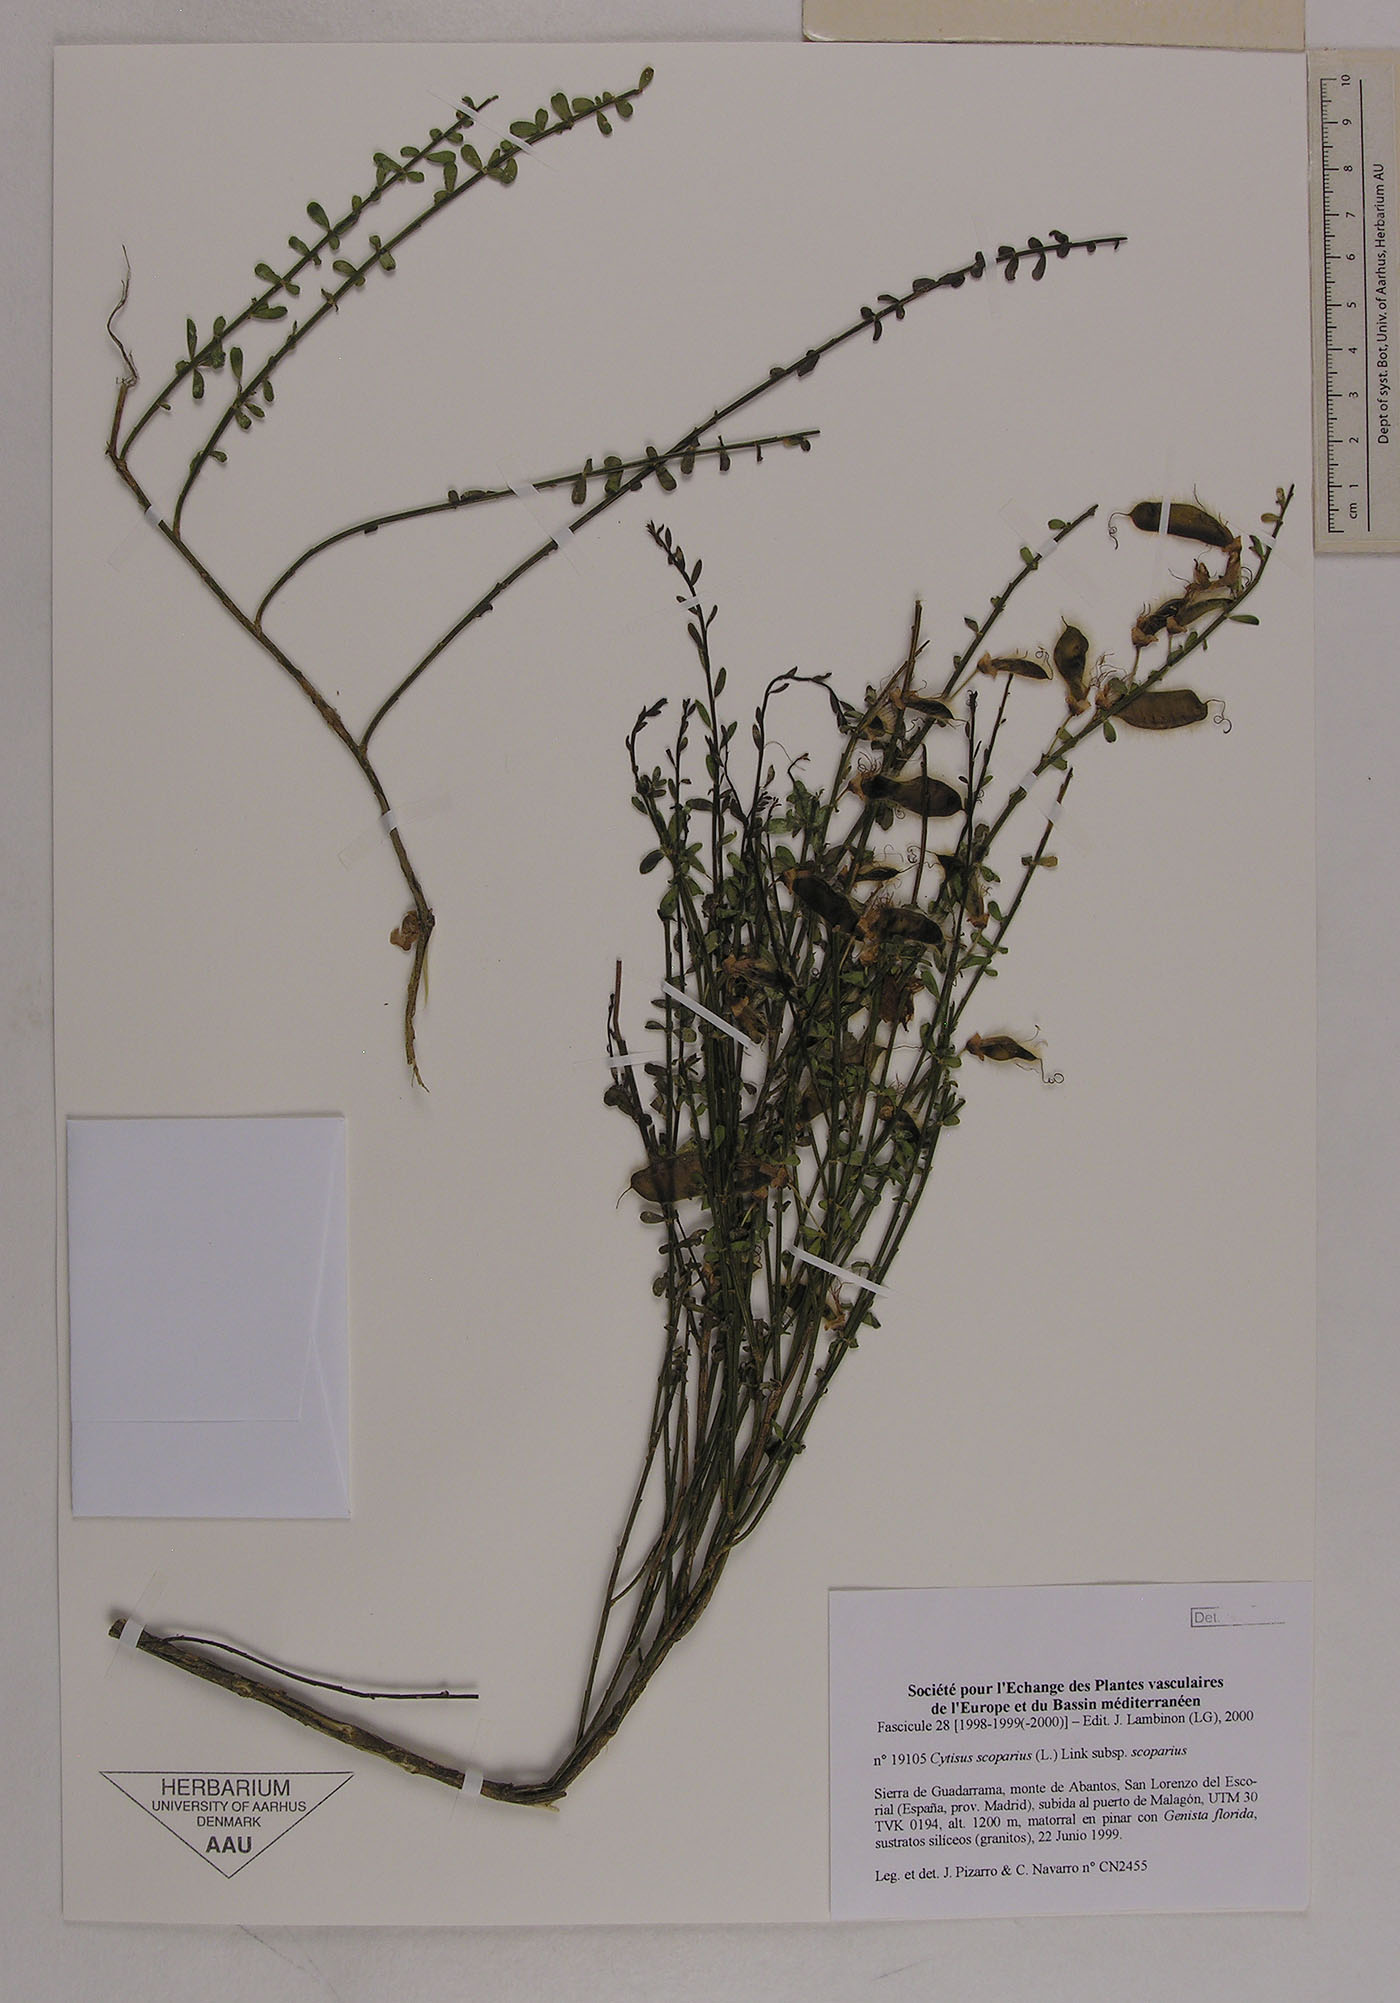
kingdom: Plantae
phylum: Tracheophyta
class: Magnoliopsida
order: Fabales
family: Fabaceae
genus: Cytisus
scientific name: Cytisus scoparius
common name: Scotch broom
